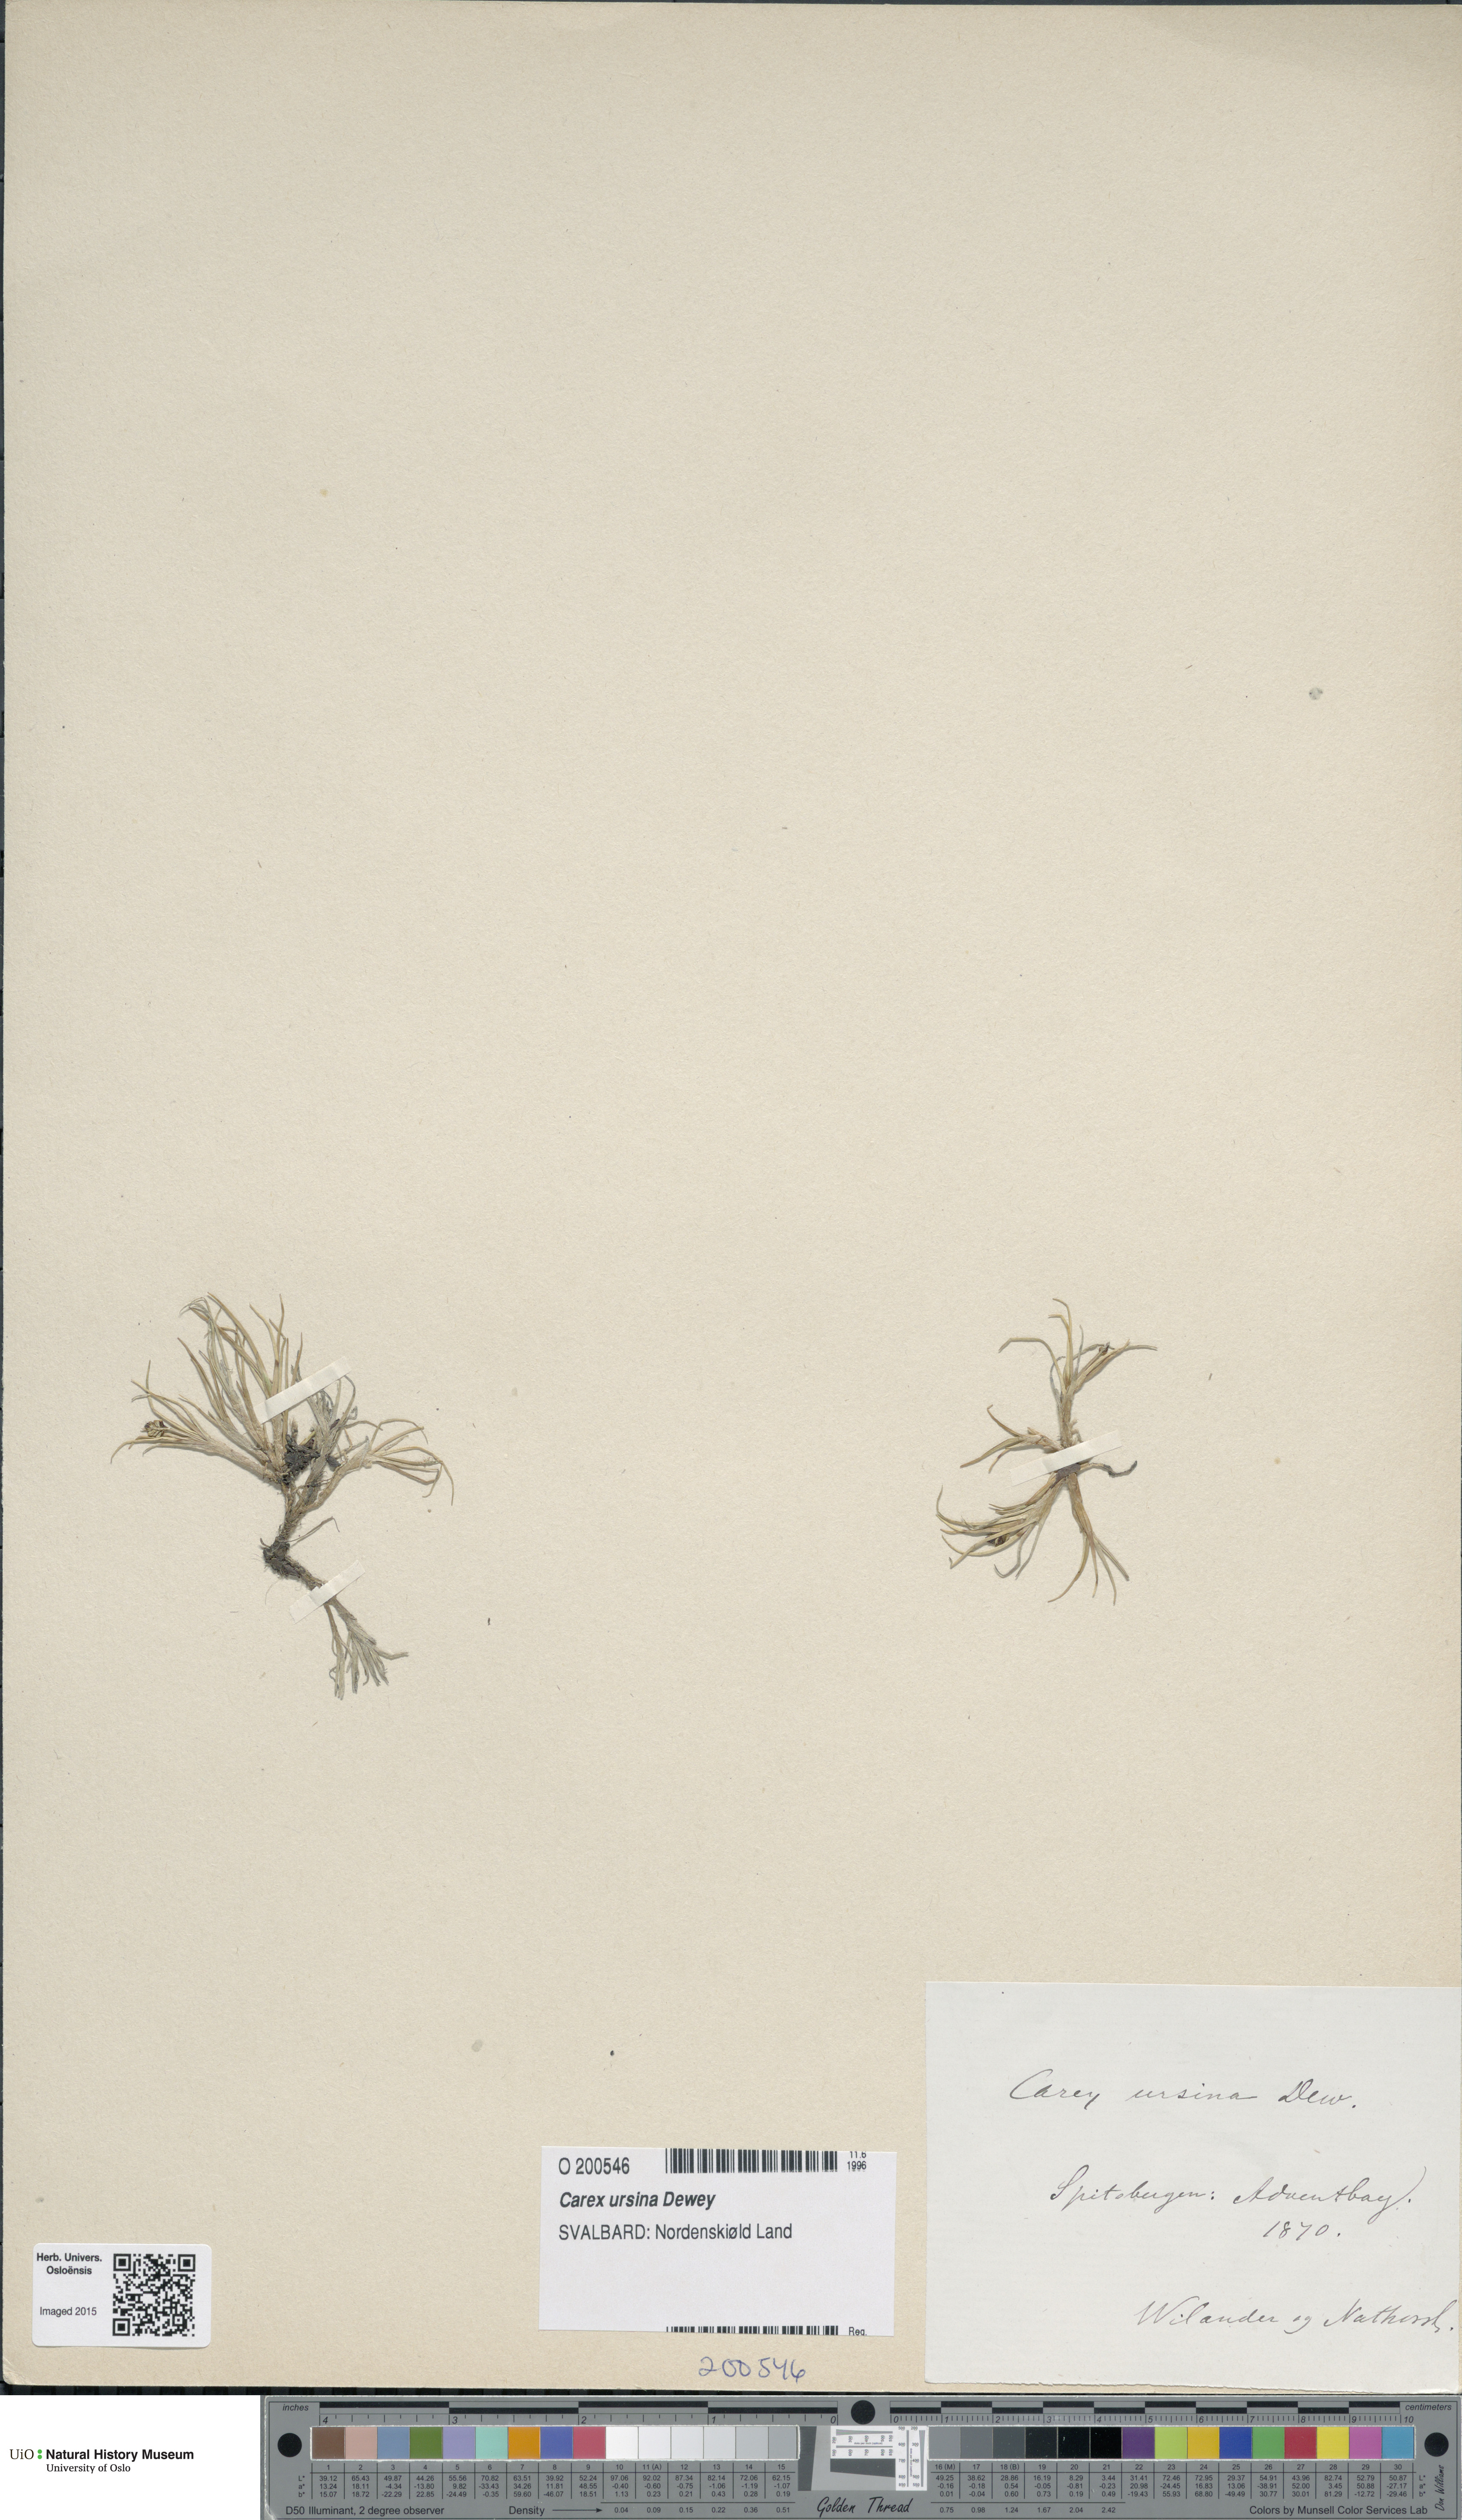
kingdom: Plantae
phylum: Tracheophyta
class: Liliopsida
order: Poales
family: Cyperaceae
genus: Carex
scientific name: Carex ursina
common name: Bear sedge
